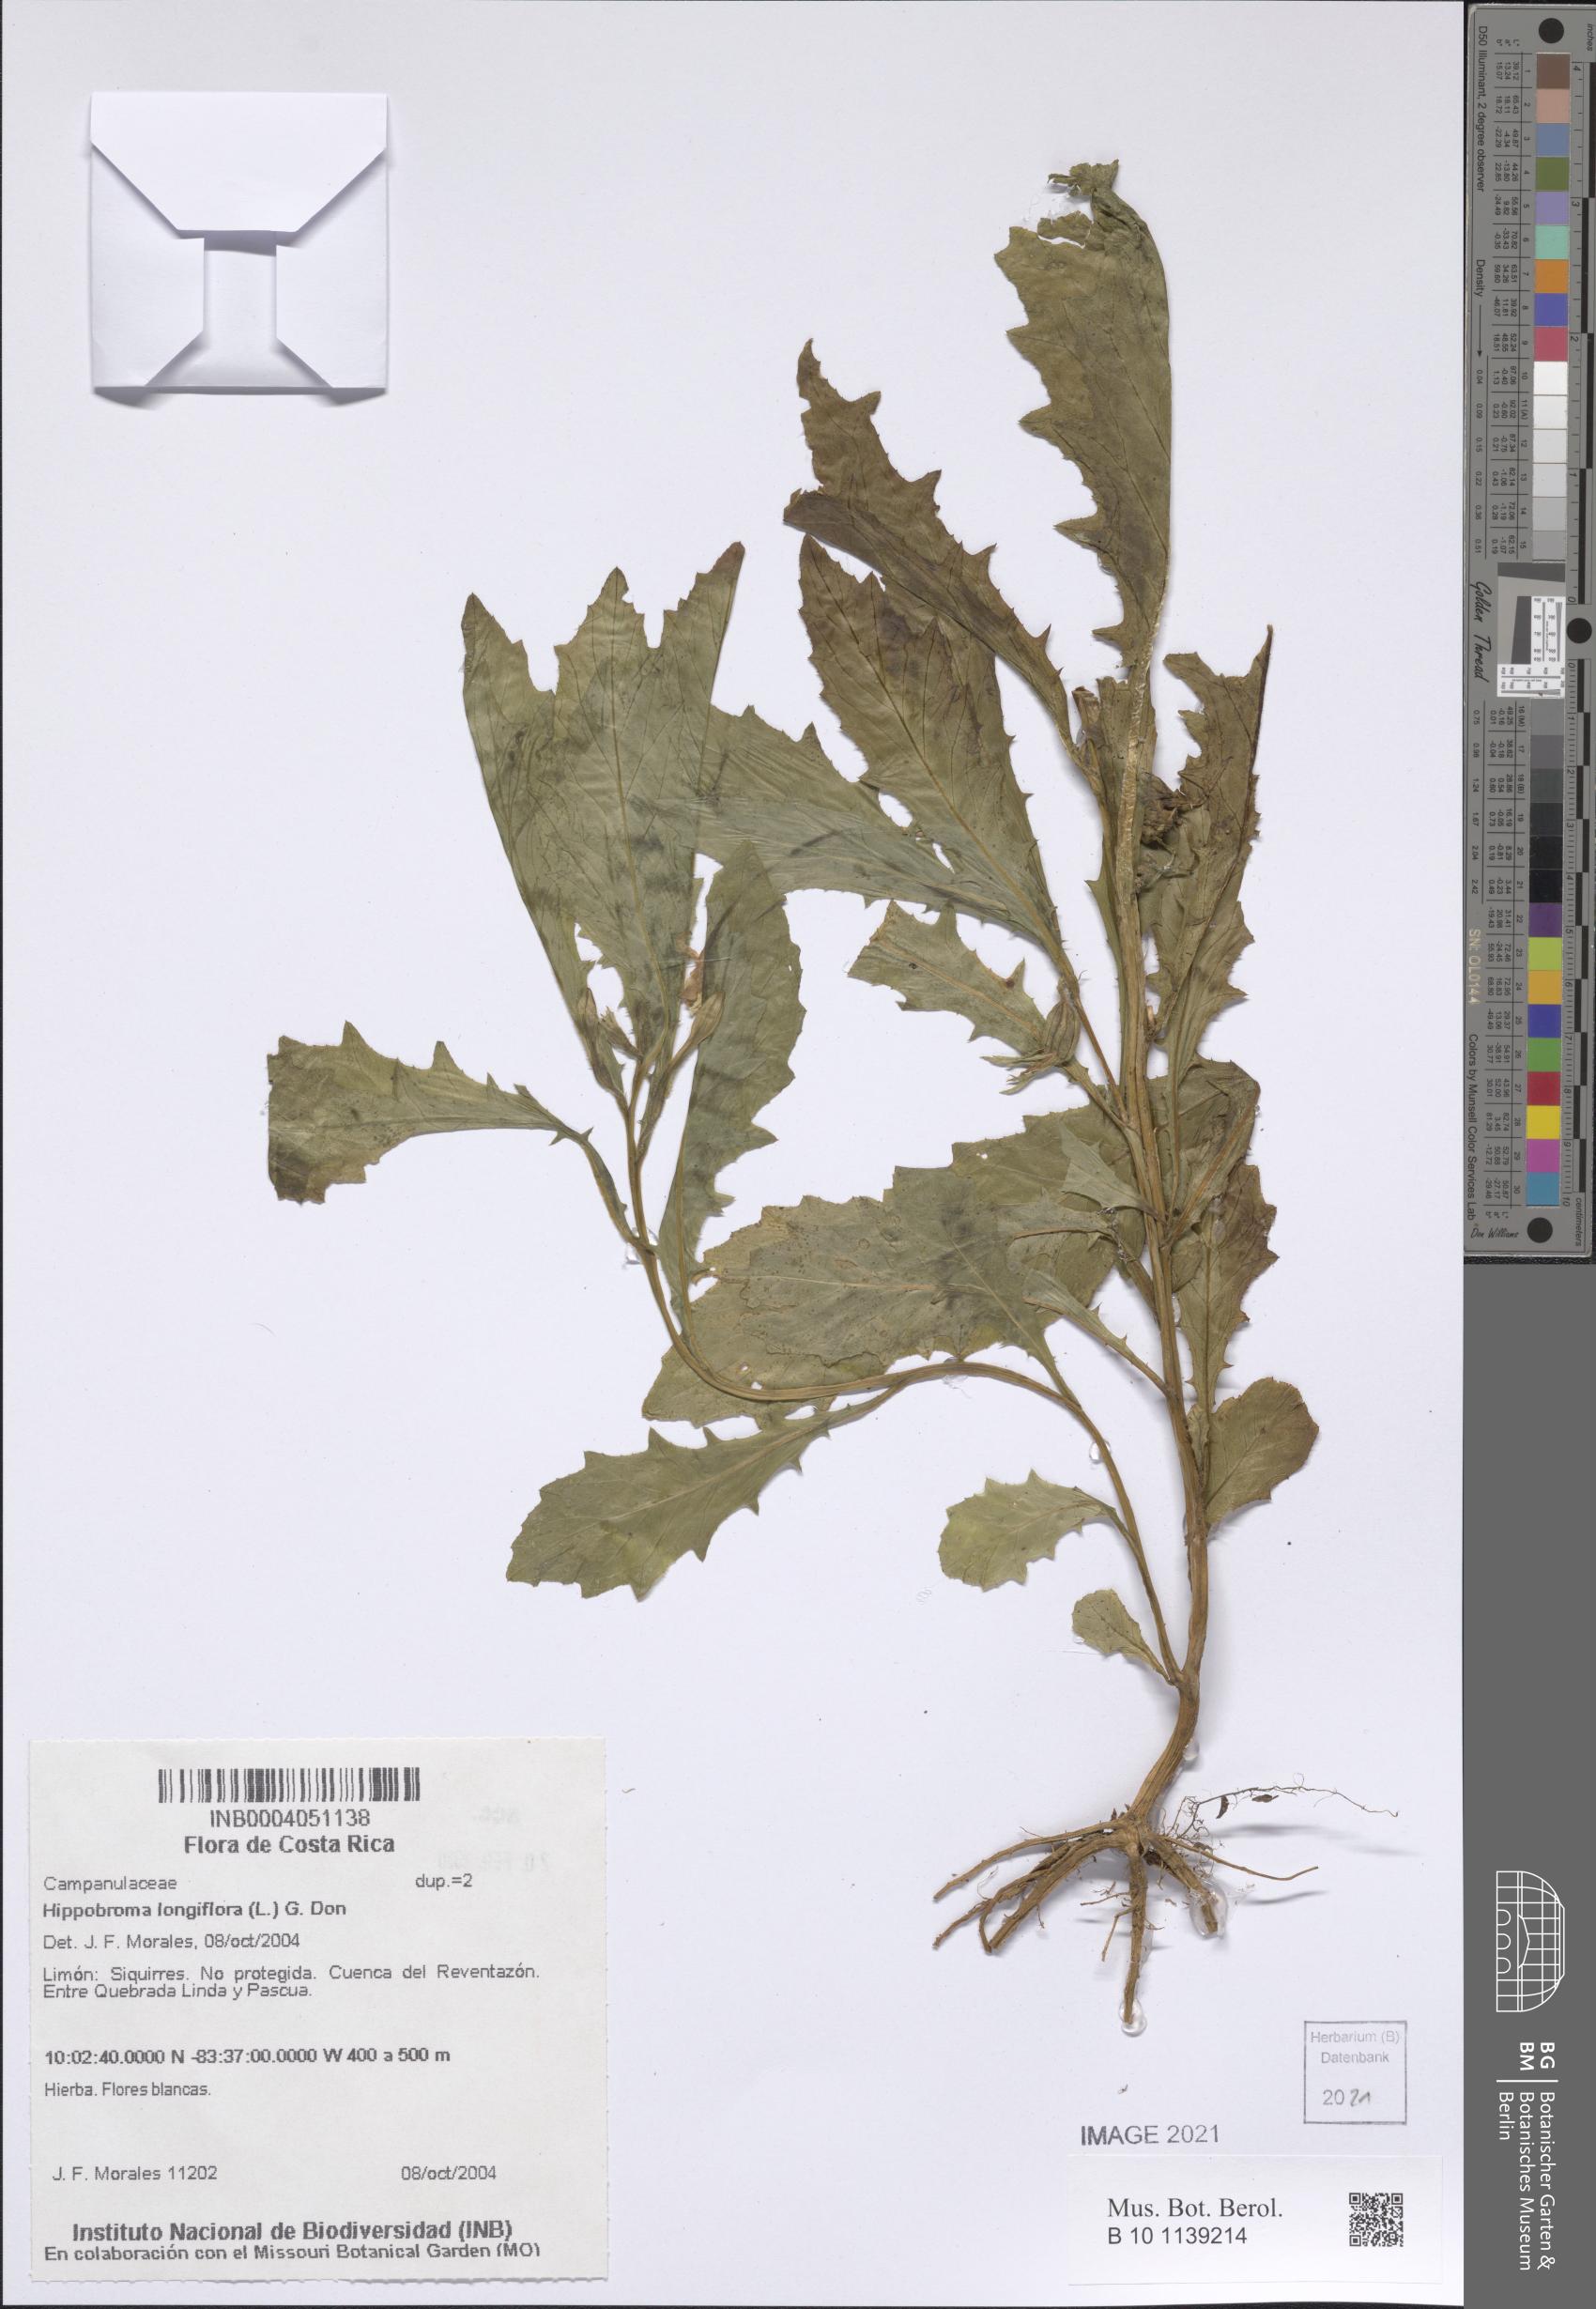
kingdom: Plantae
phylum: Tracheophyta
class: Magnoliopsida
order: Asterales
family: Campanulaceae
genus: Hippobroma
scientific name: Hippobroma longiflora
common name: Madamfate
